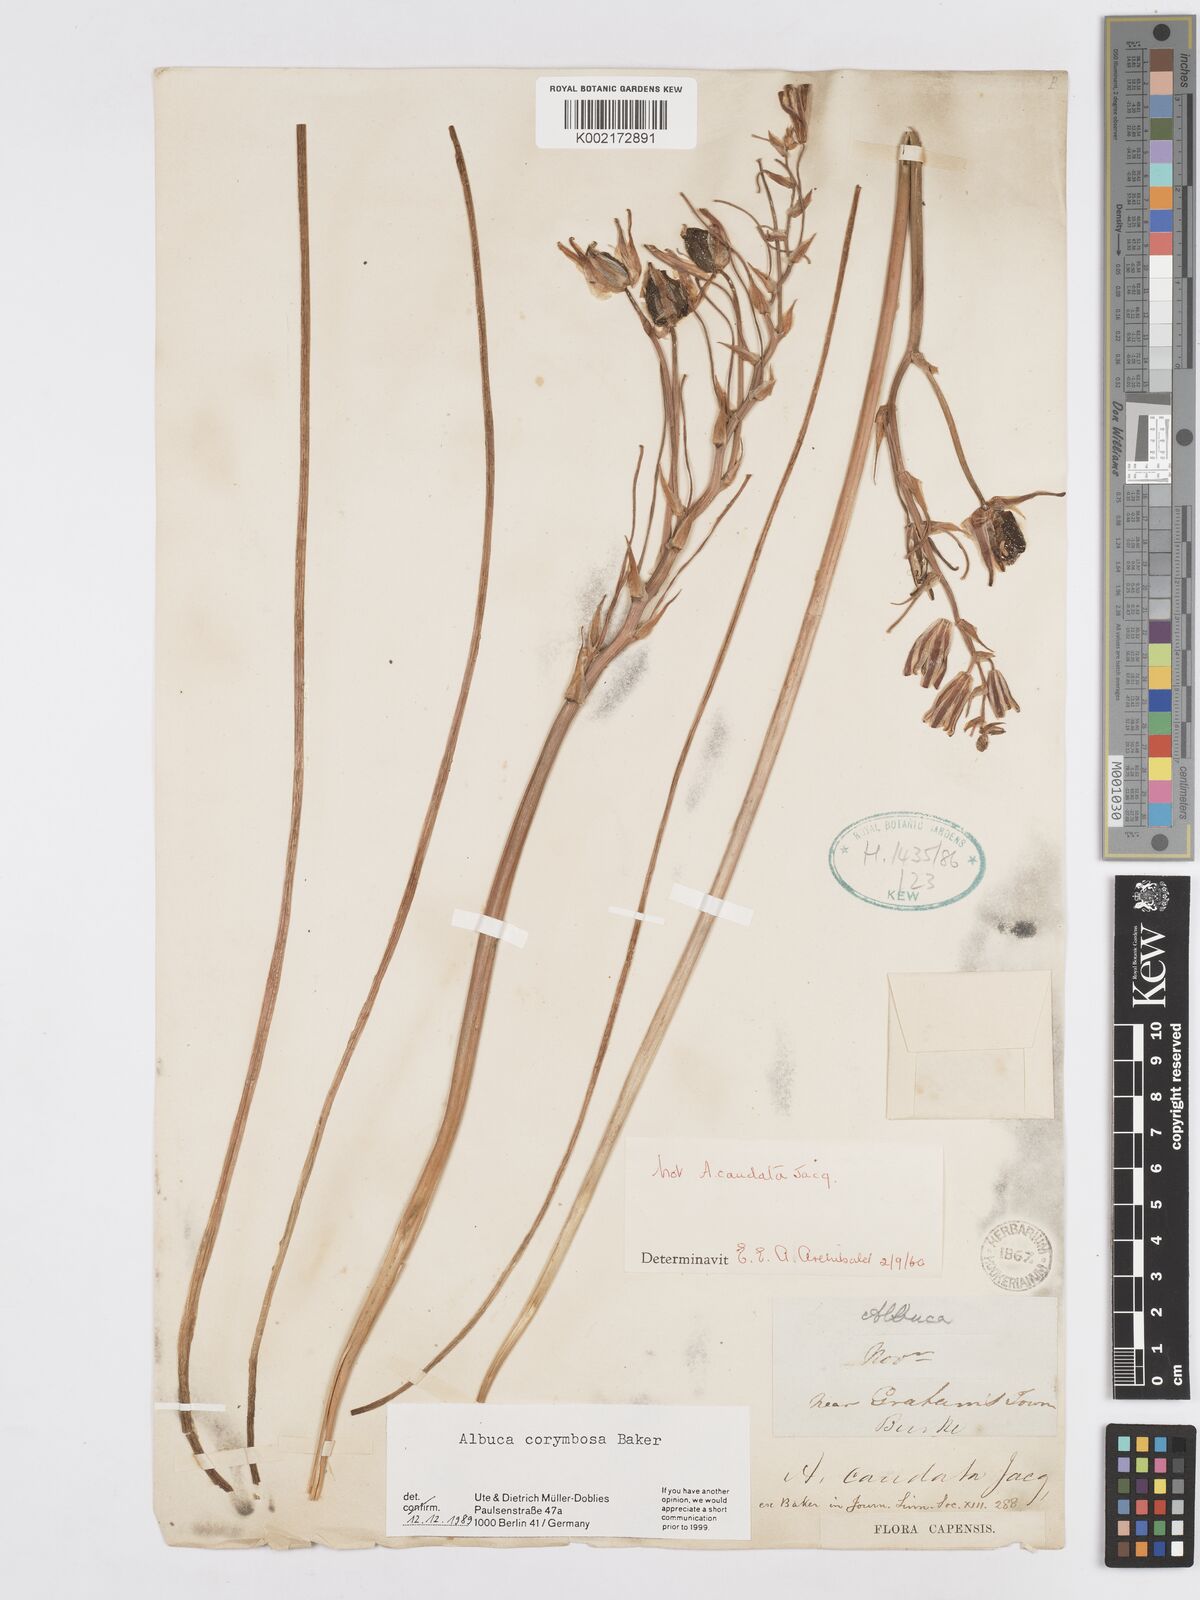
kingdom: Plantae
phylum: Tracheophyta
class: Liliopsida
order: Asparagales
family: Asparagaceae
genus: Albuca
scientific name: Albuca corymbosa
